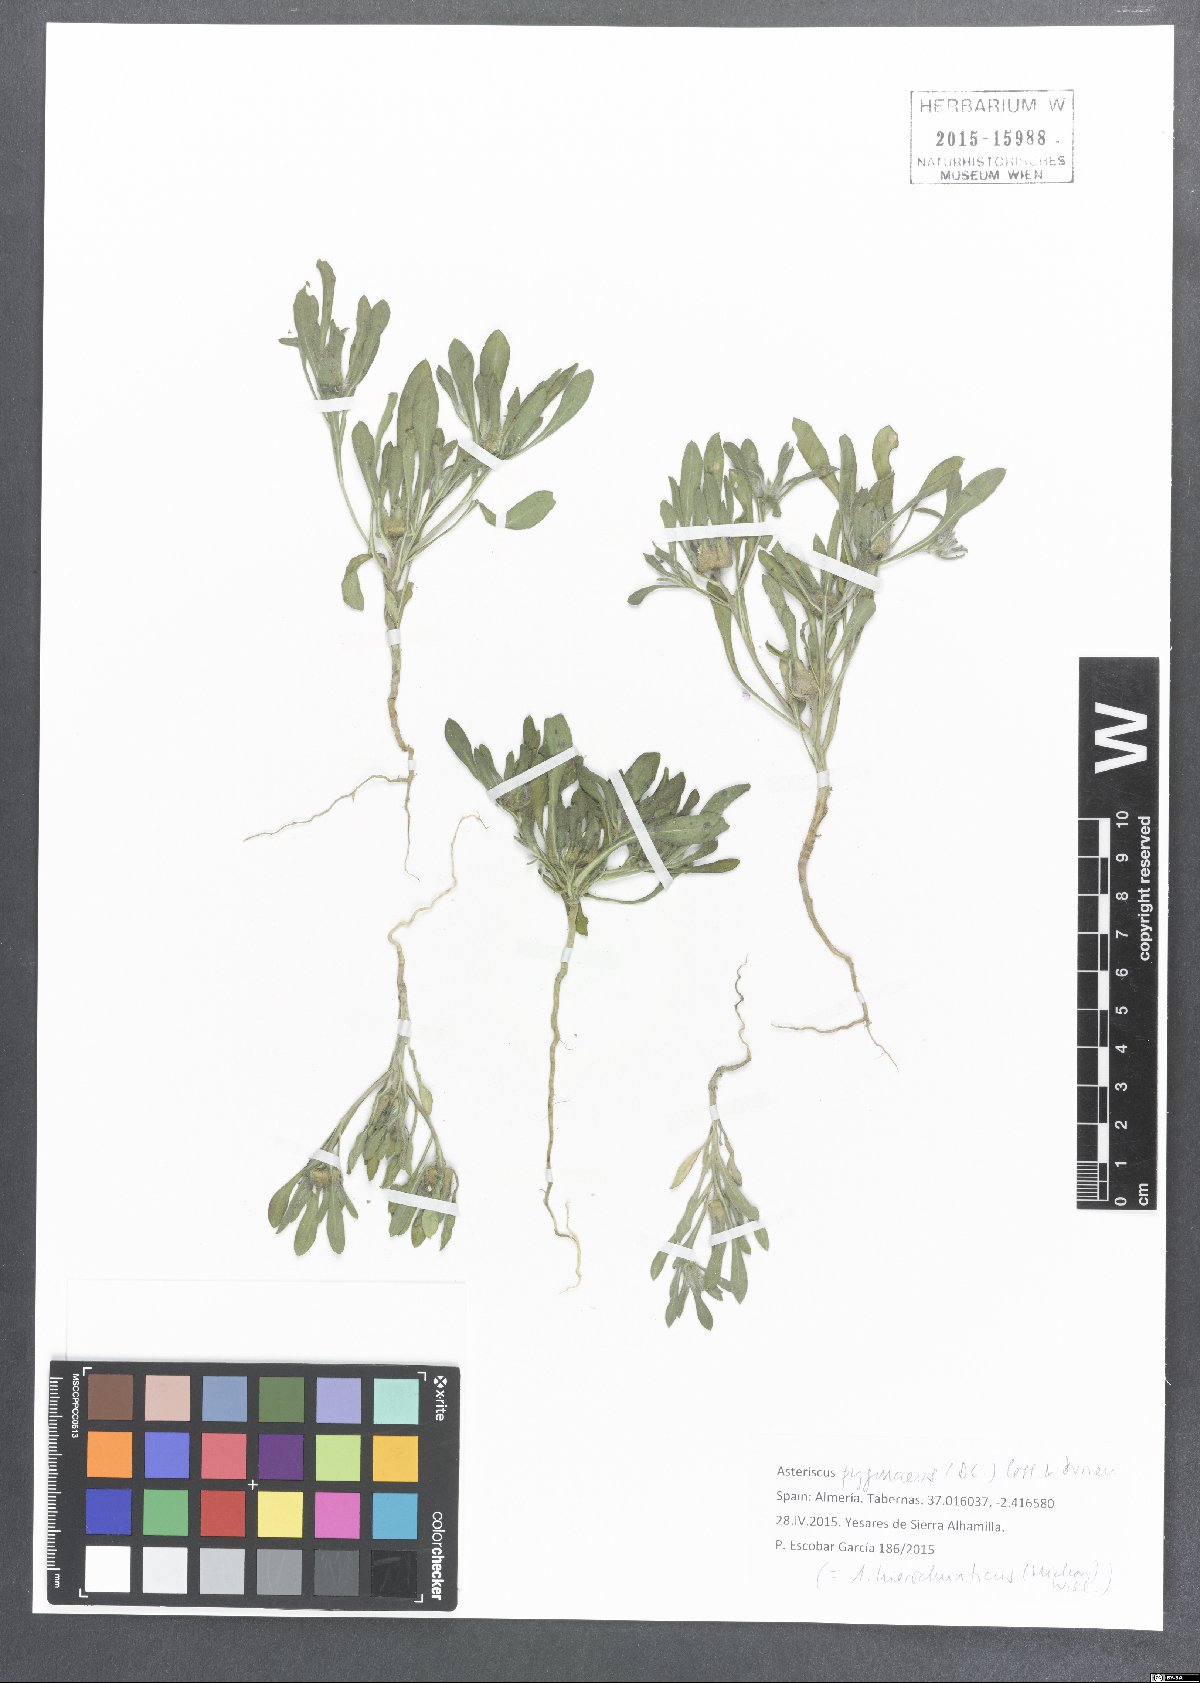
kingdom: Plantae
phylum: Tracheophyta
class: Magnoliopsida
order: Asterales
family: Asteraceae
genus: Pallenis
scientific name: Pallenis hierochuntica
